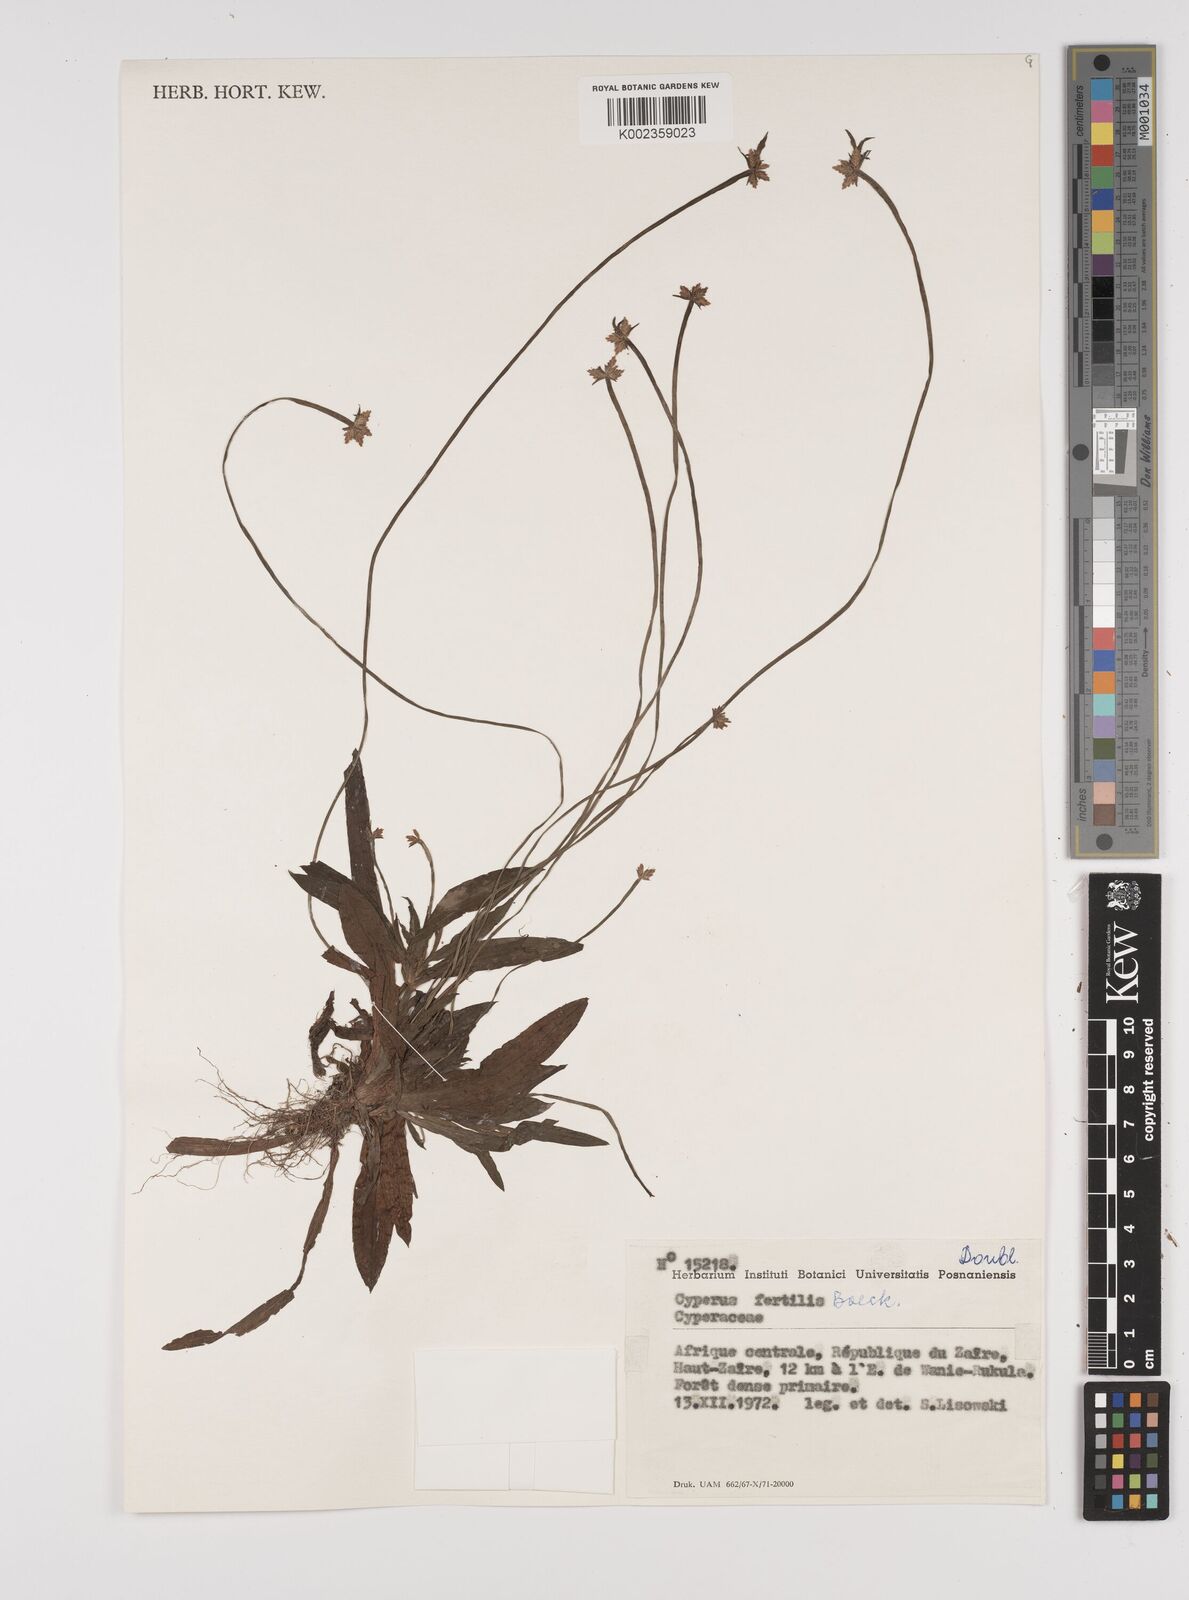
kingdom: Plantae
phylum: Tracheophyta
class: Liliopsida
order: Poales
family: Cyperaceae
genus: Cyperus
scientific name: Cyperus fertilis
